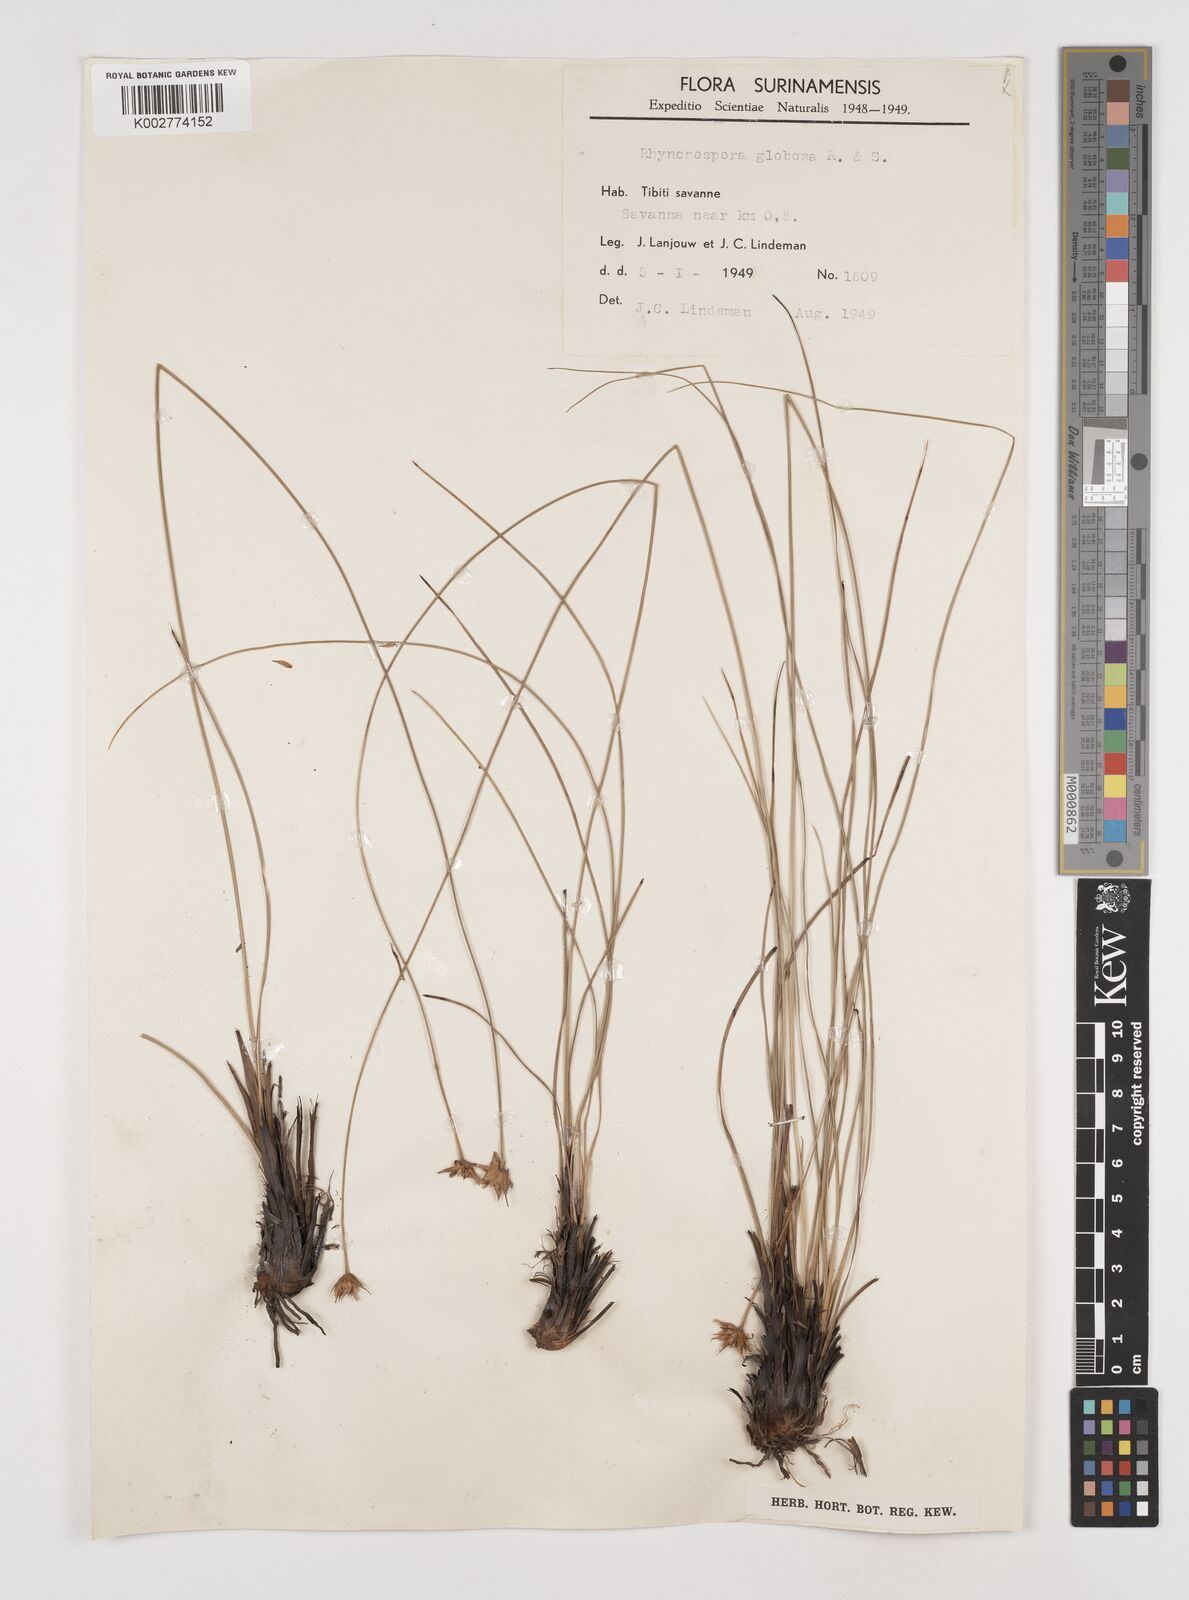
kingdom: Plantae
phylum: Tracheophyta
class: Liliopsida
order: Poales
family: Cyperaceae
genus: Rhynchospora
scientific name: Rhynchospora globosa
